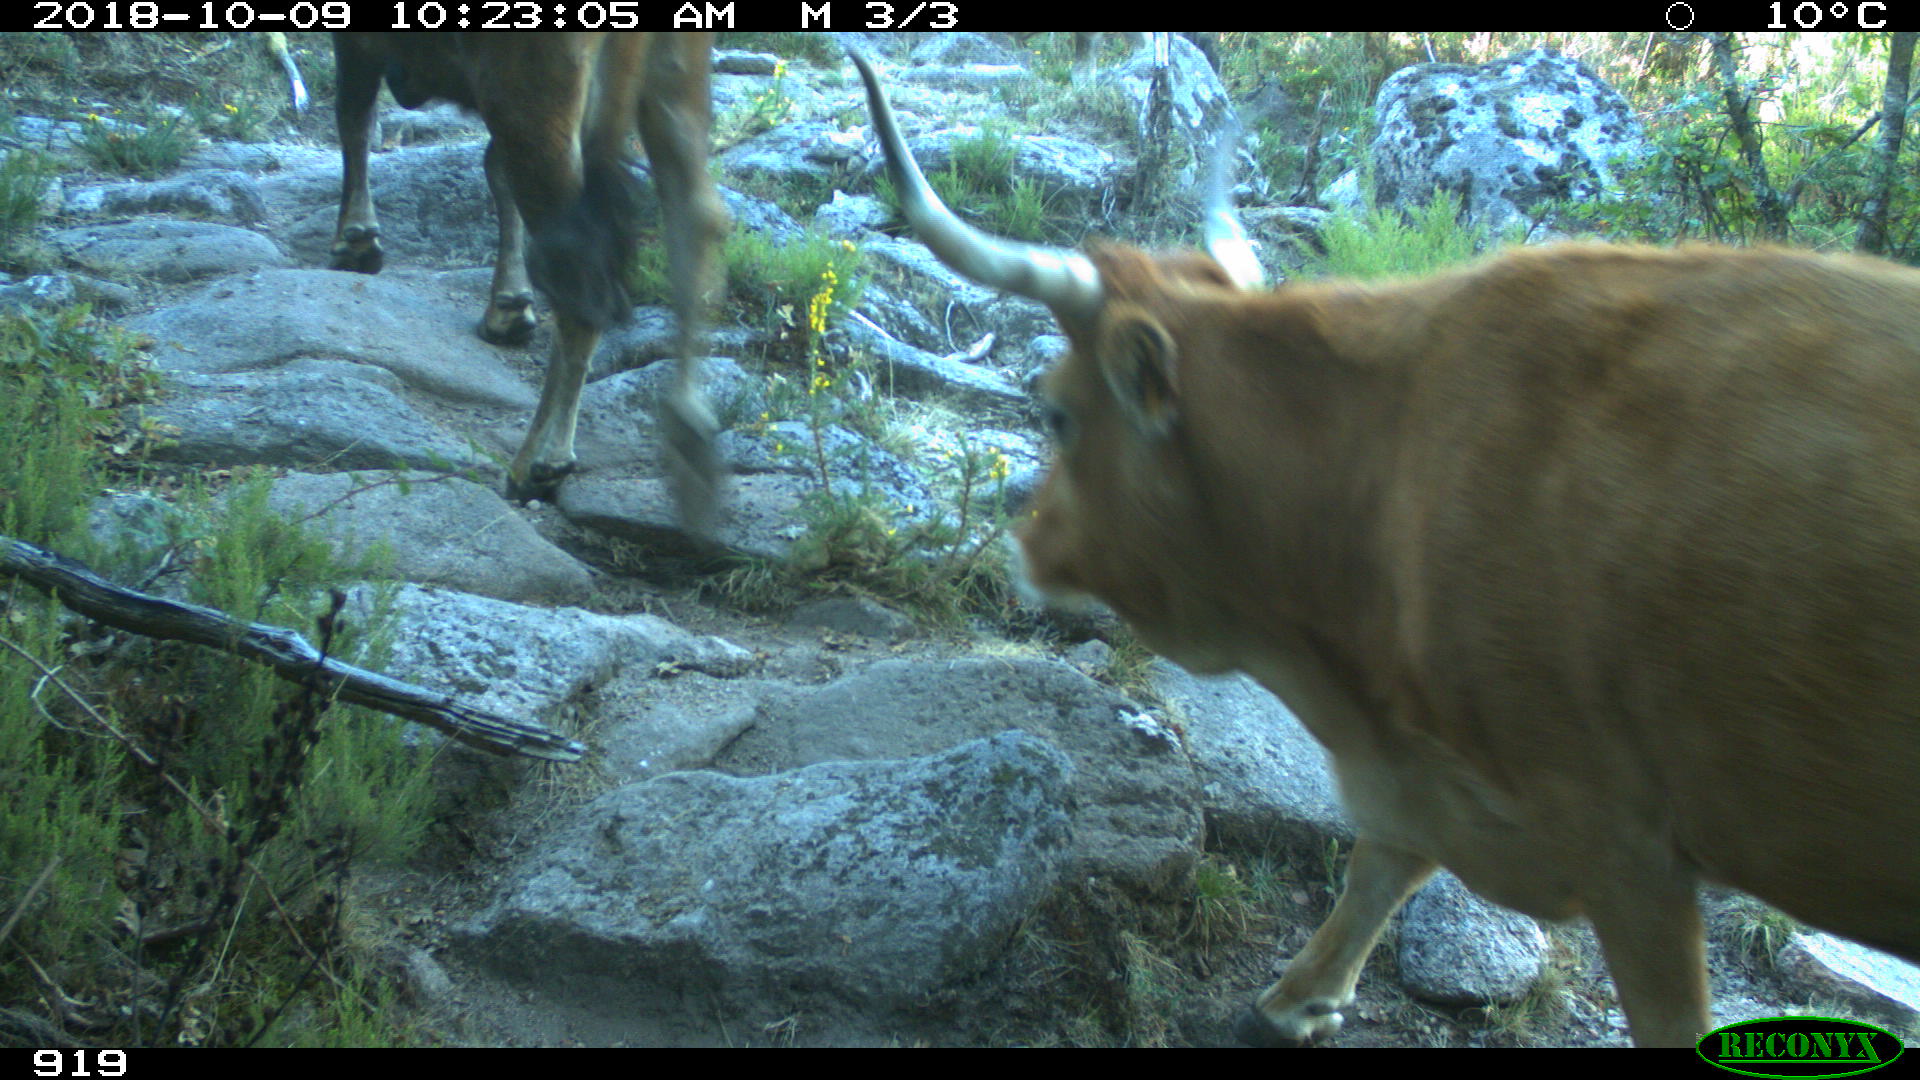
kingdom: Animalia
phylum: Chordata
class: Mammalia
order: Artiodactyla
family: Bovidae
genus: Bos
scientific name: Bos taurus
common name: Domesticated cattle
